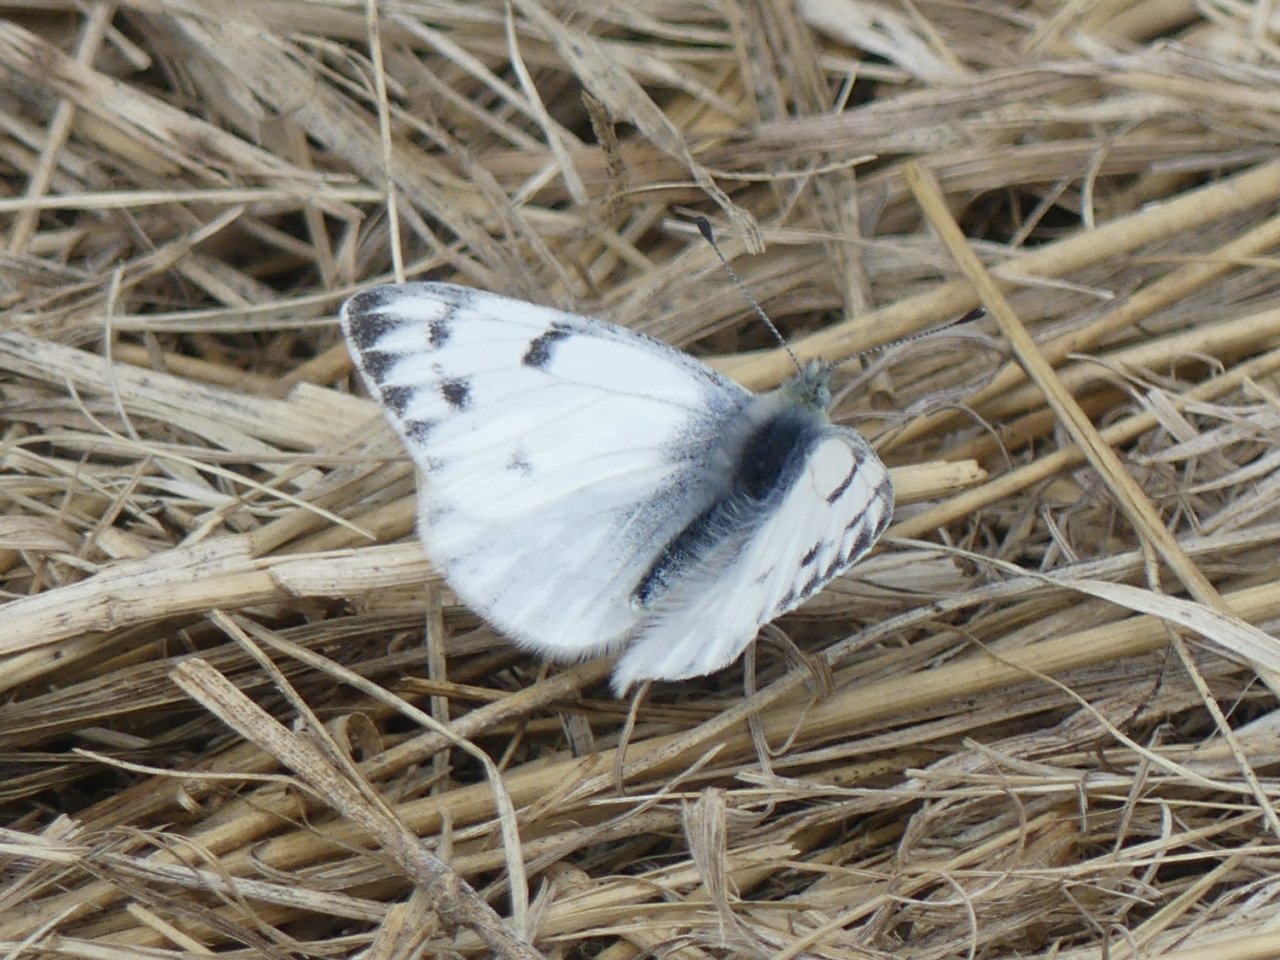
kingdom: Animalia
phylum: Arthropoda
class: Insecta
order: Lepidoptera
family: Pieridae
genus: Pontia
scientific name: Pontia occidentalis
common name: Western White
